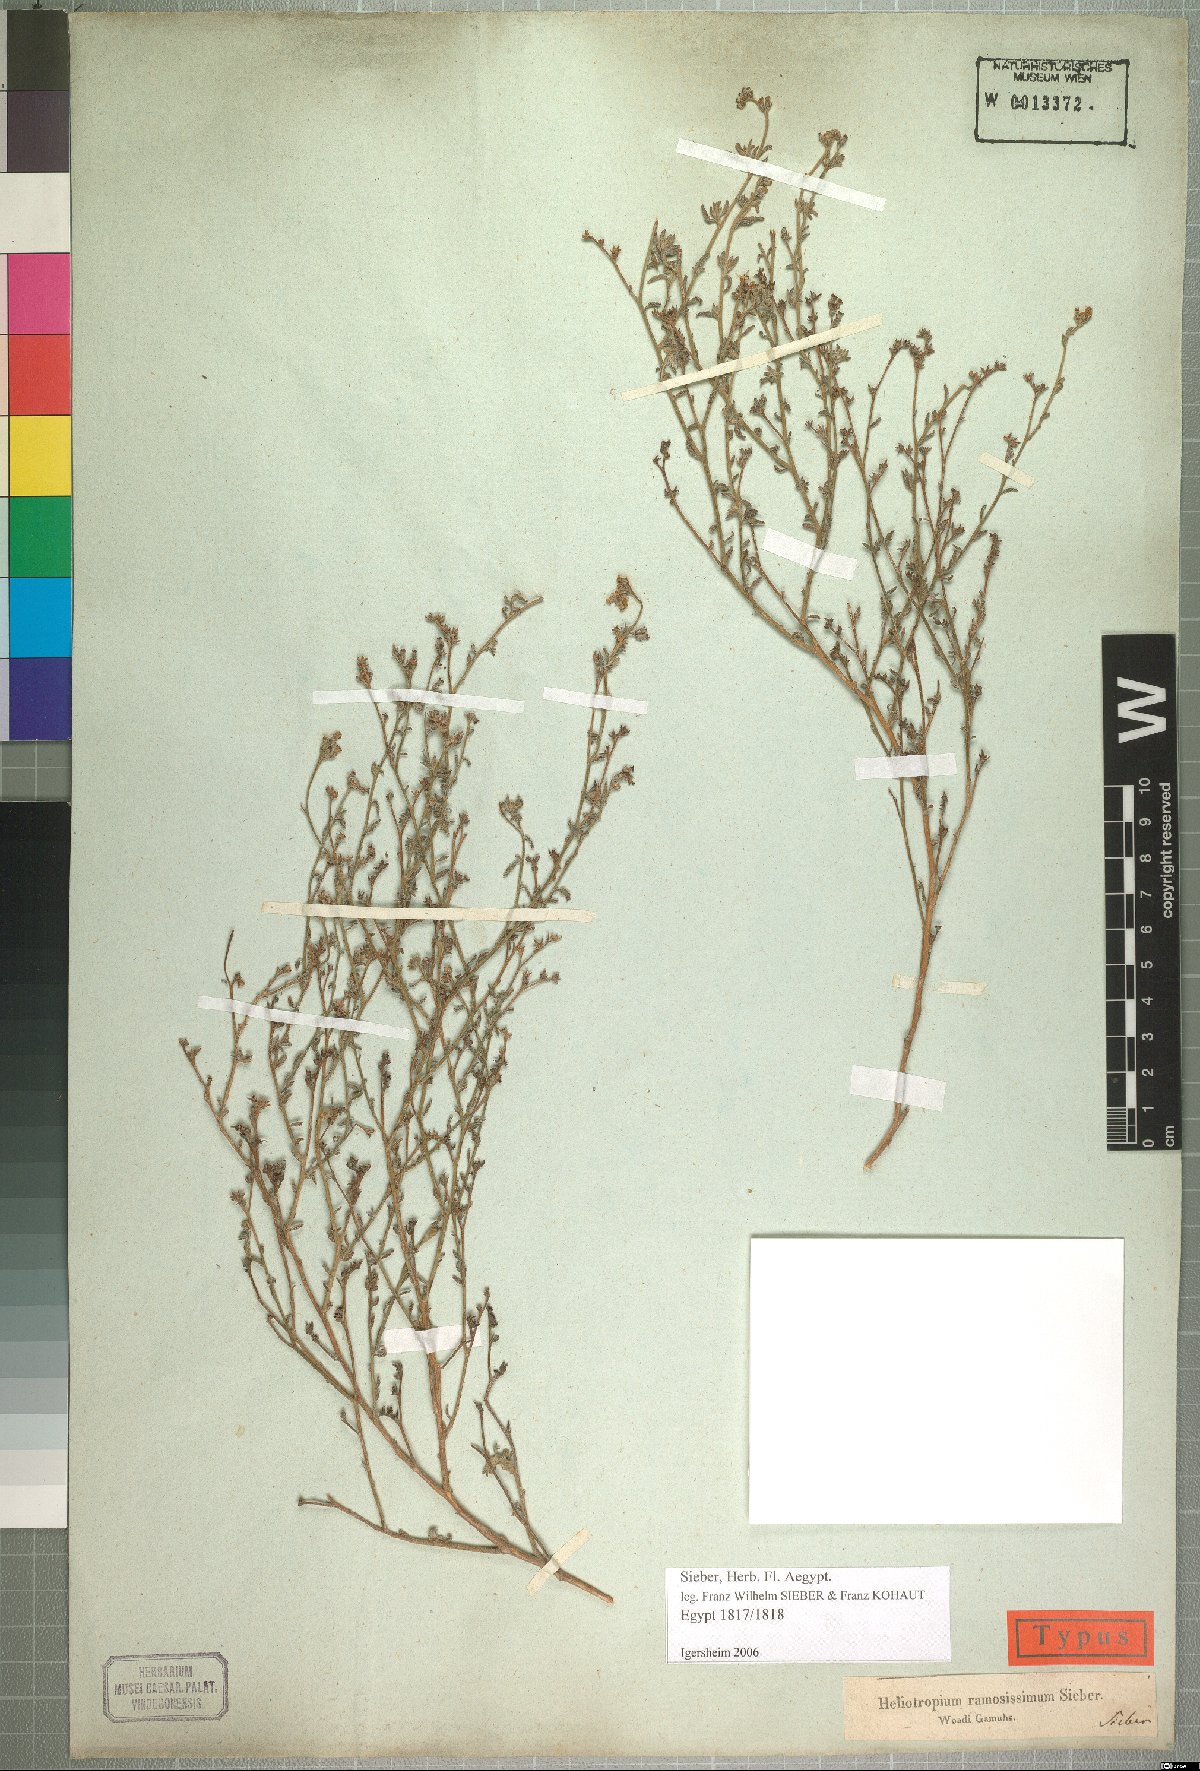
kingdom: Plantae
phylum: Tracheophyta
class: Magnoliopsida
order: Boraginales
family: Heliotropiaceae
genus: Heliotropium
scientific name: Heliotropium bacciferum
